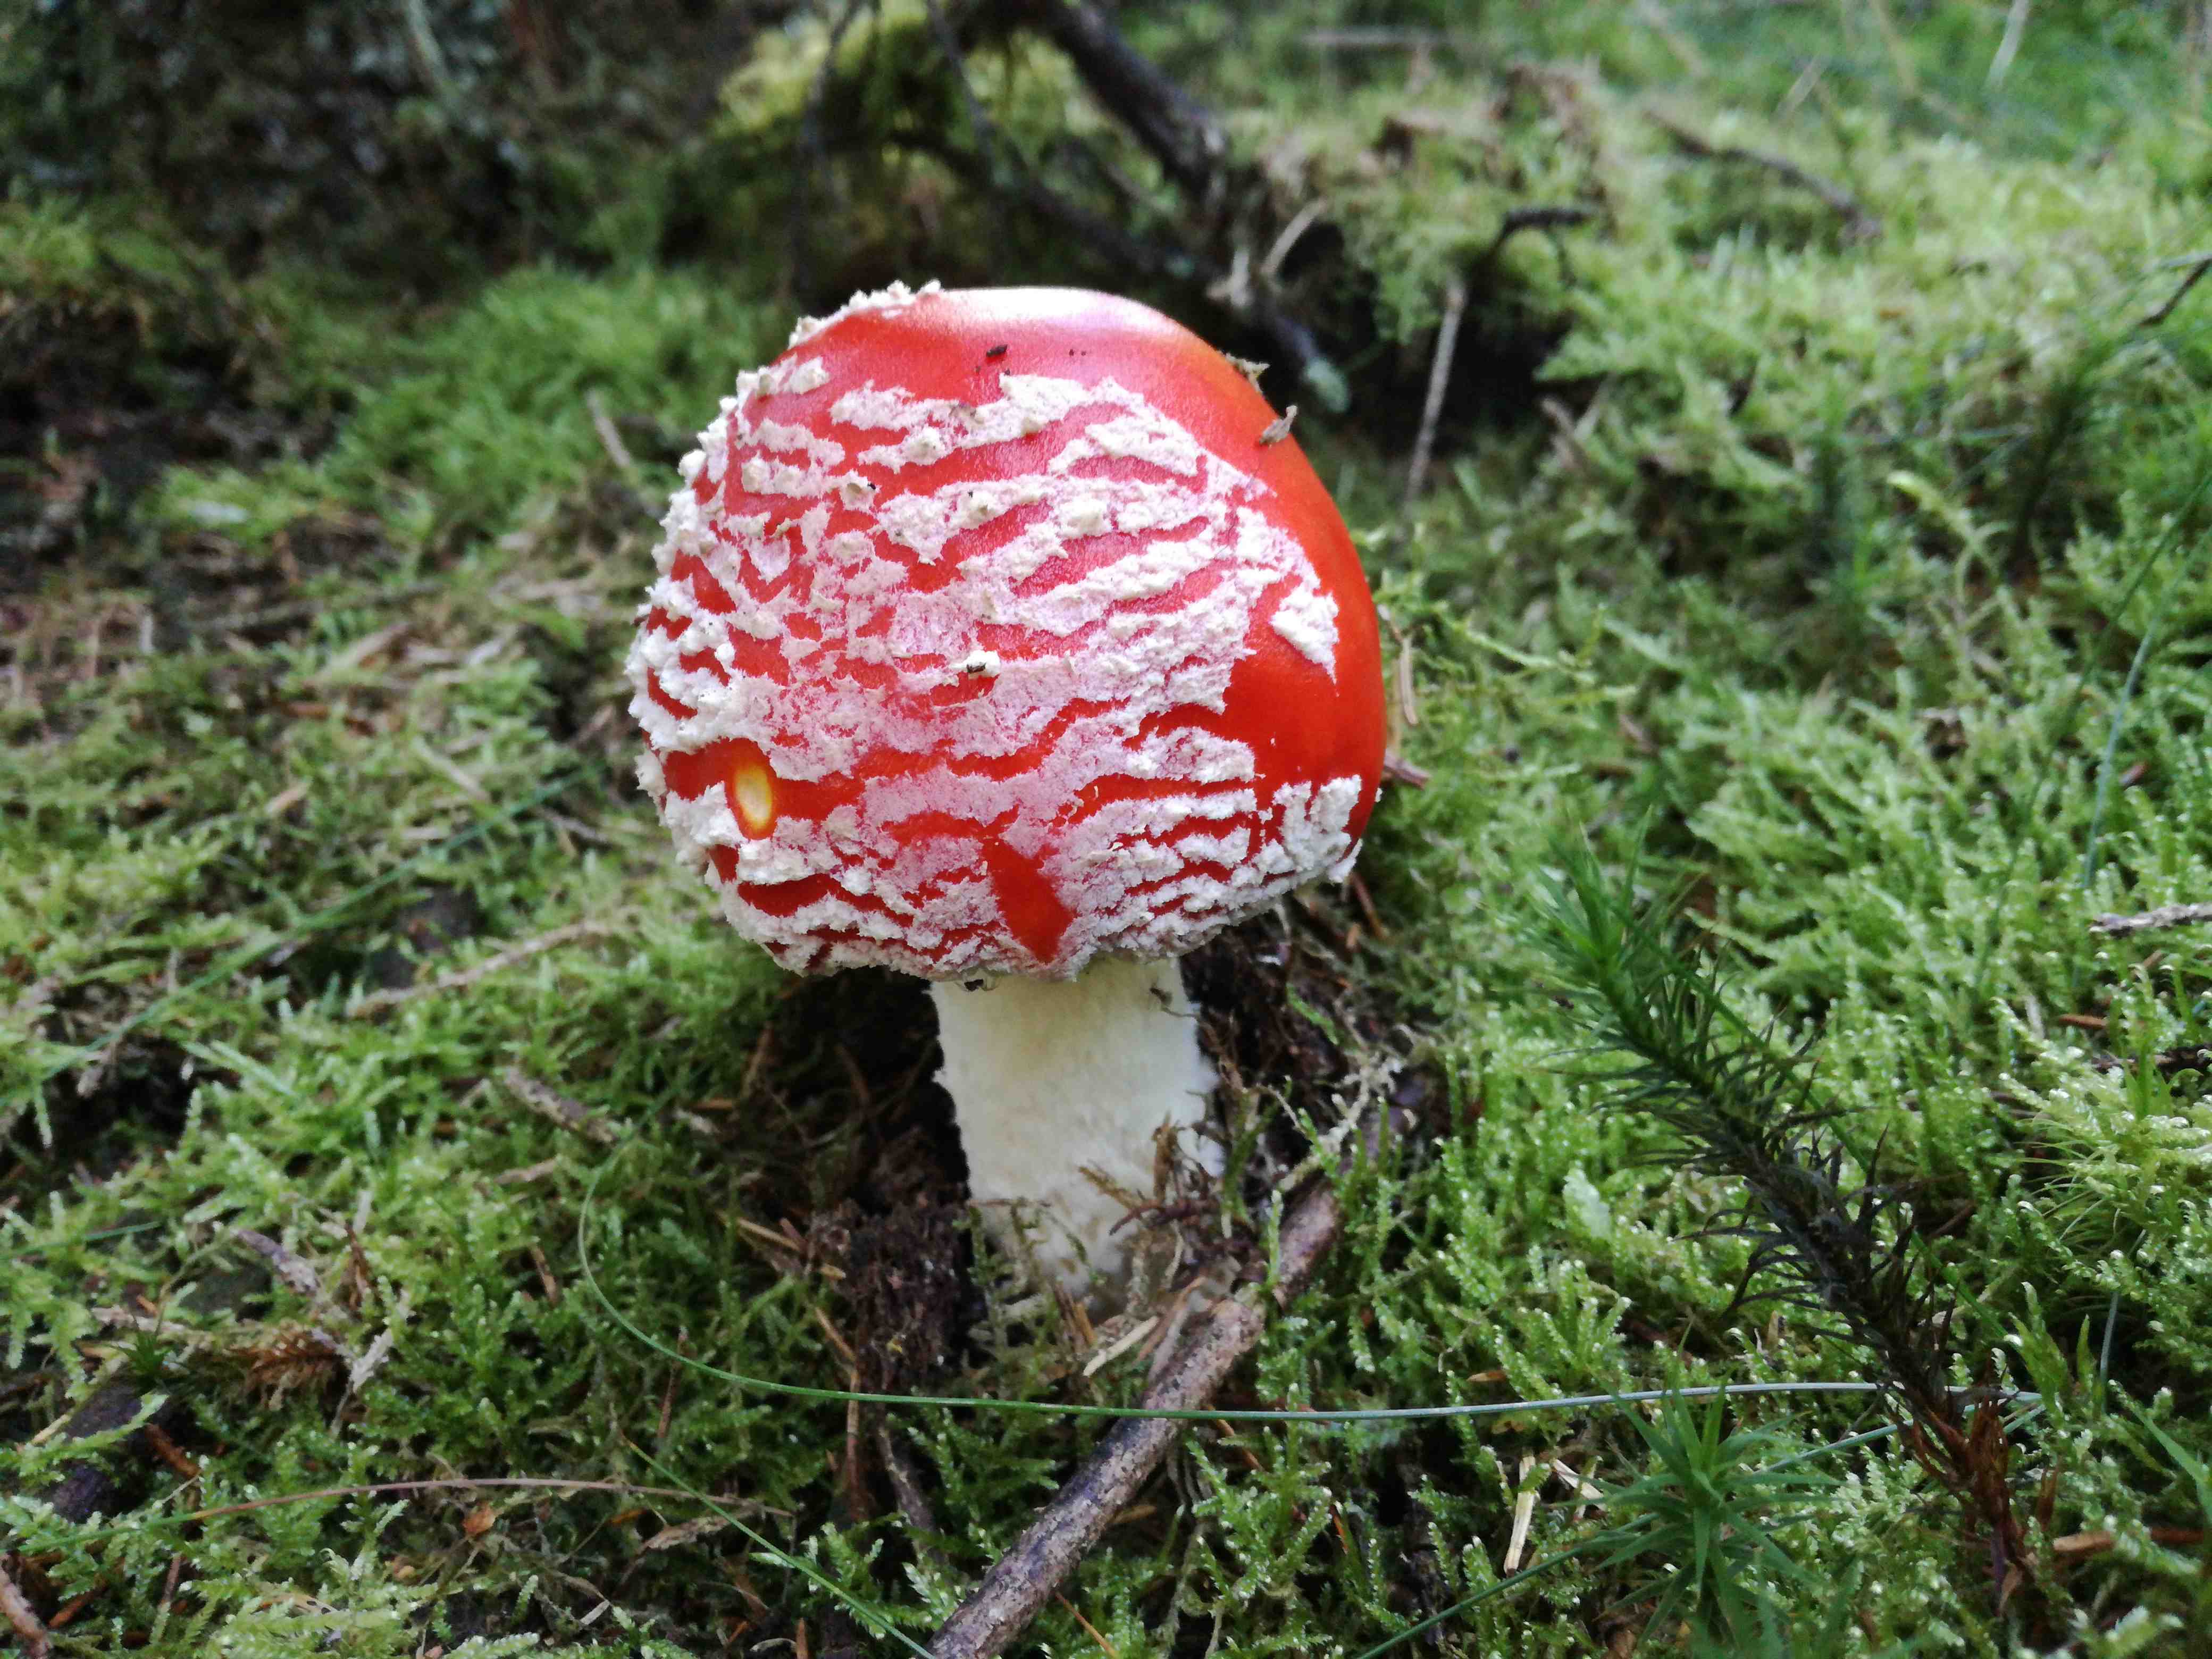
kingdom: Fungi
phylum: Basidiomycota
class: Agaricomycetes
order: Agaricales
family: Amanitaceae
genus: Amanita
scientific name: Amanita muscaria
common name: rød fluesvamp
